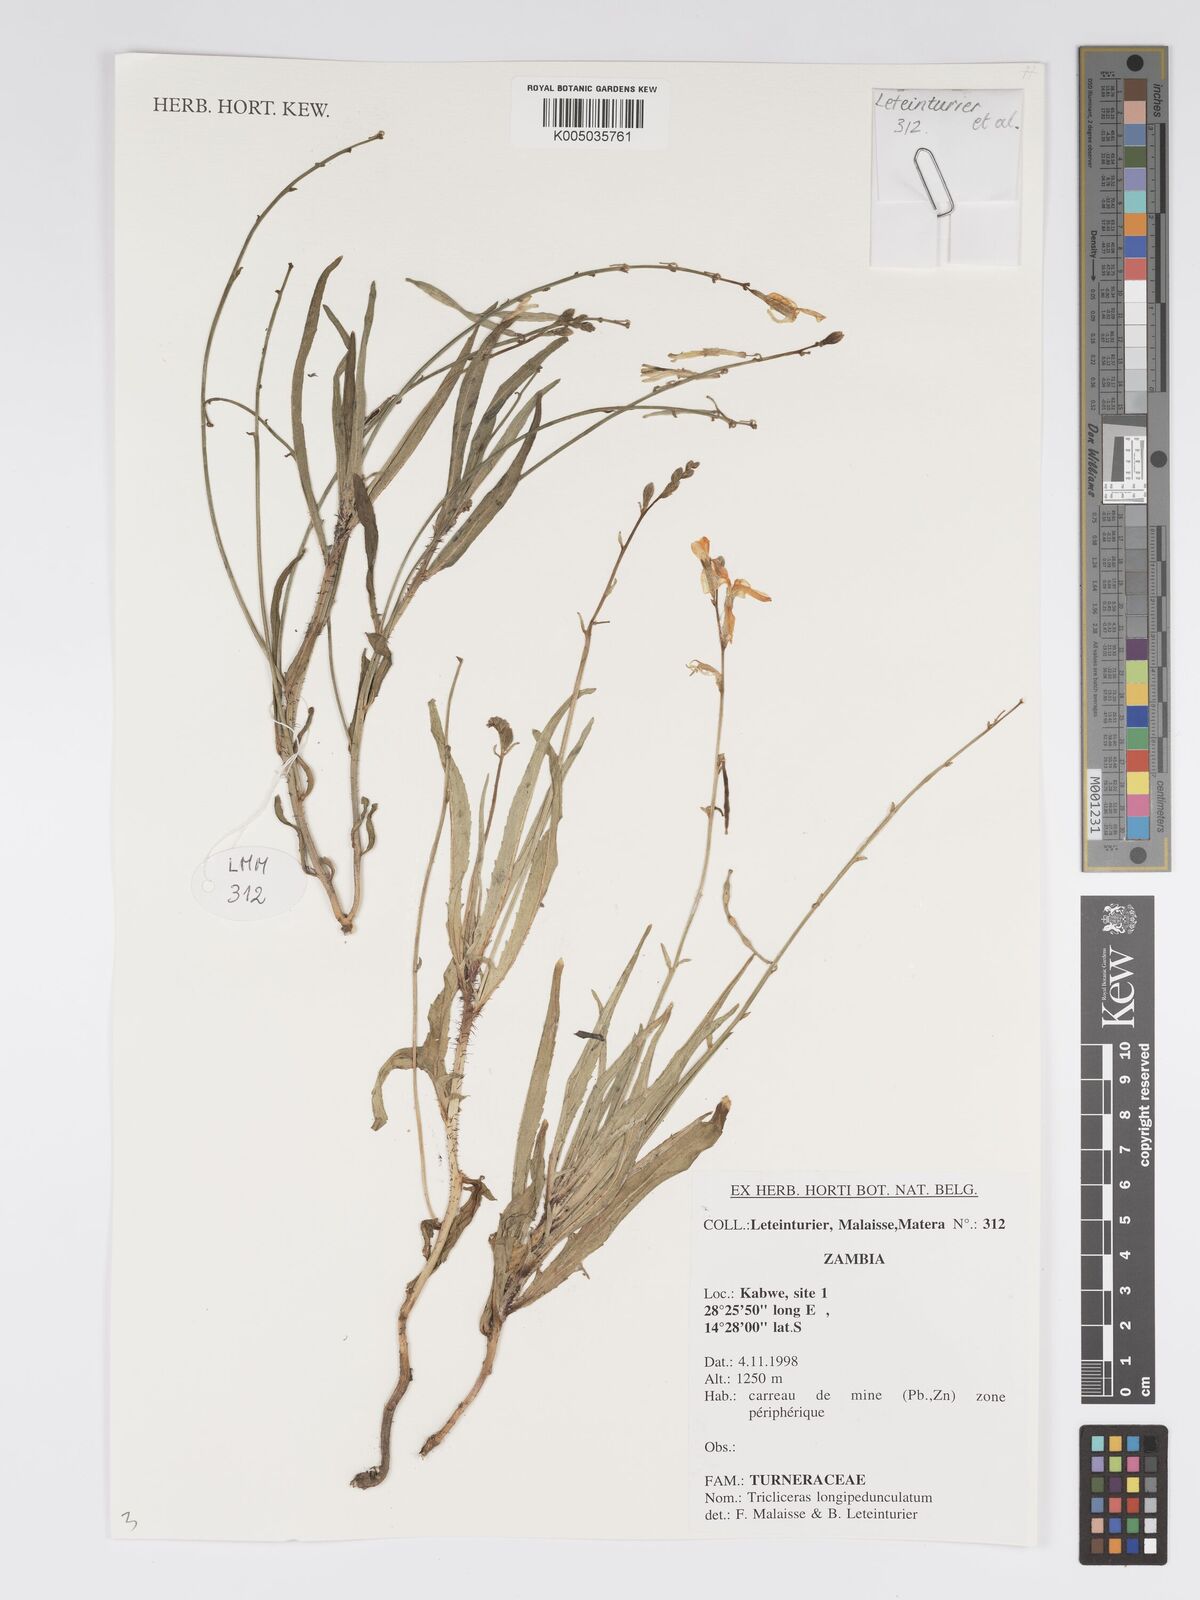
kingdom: Plantae
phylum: Tracheophyta
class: Magnoliopsida
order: Malpighiales
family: Turneraceae
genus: Tricliceras
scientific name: Tricliceras longepedunculatum
